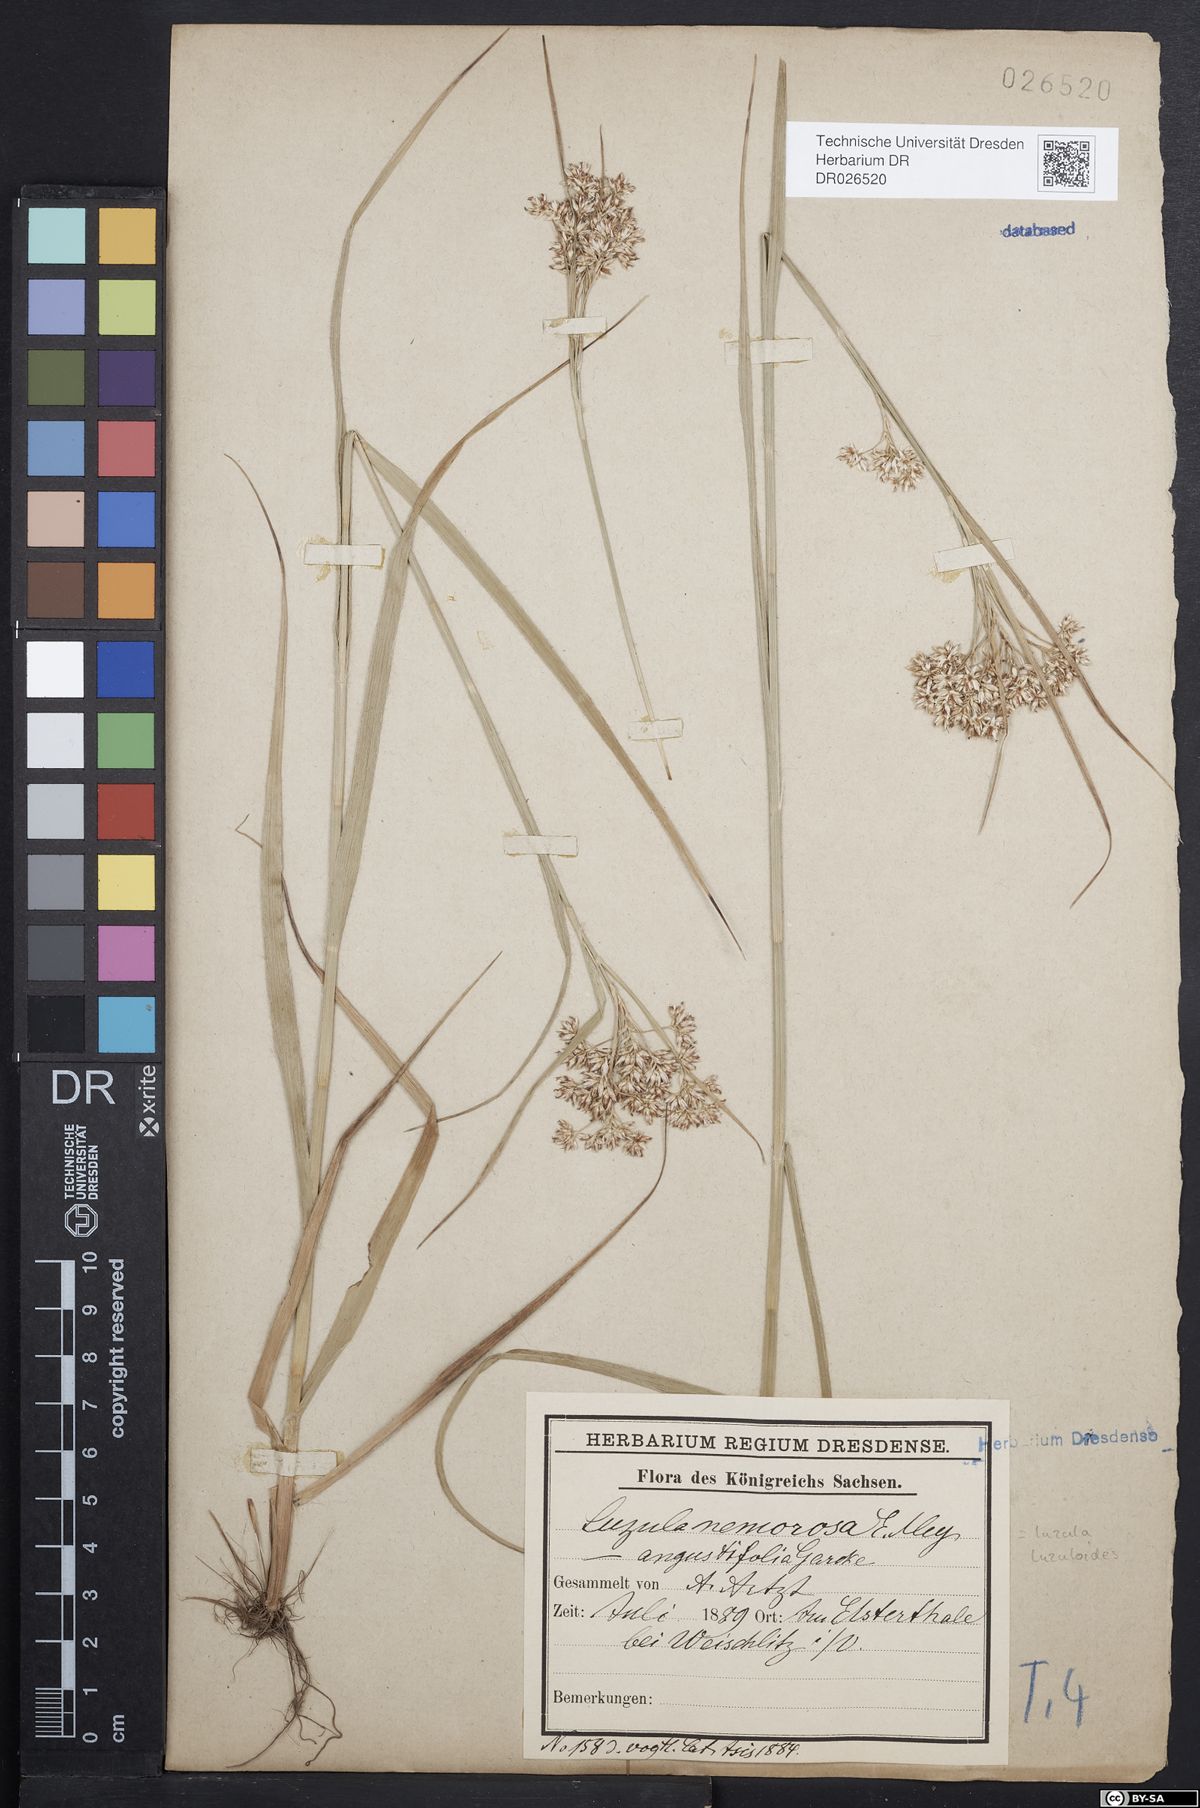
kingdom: Plantae
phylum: Tracheophyta
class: Liliopsida
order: Poales
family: Juncaceae
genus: Luzula
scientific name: Luzula luzuloides
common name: White wood-rush
